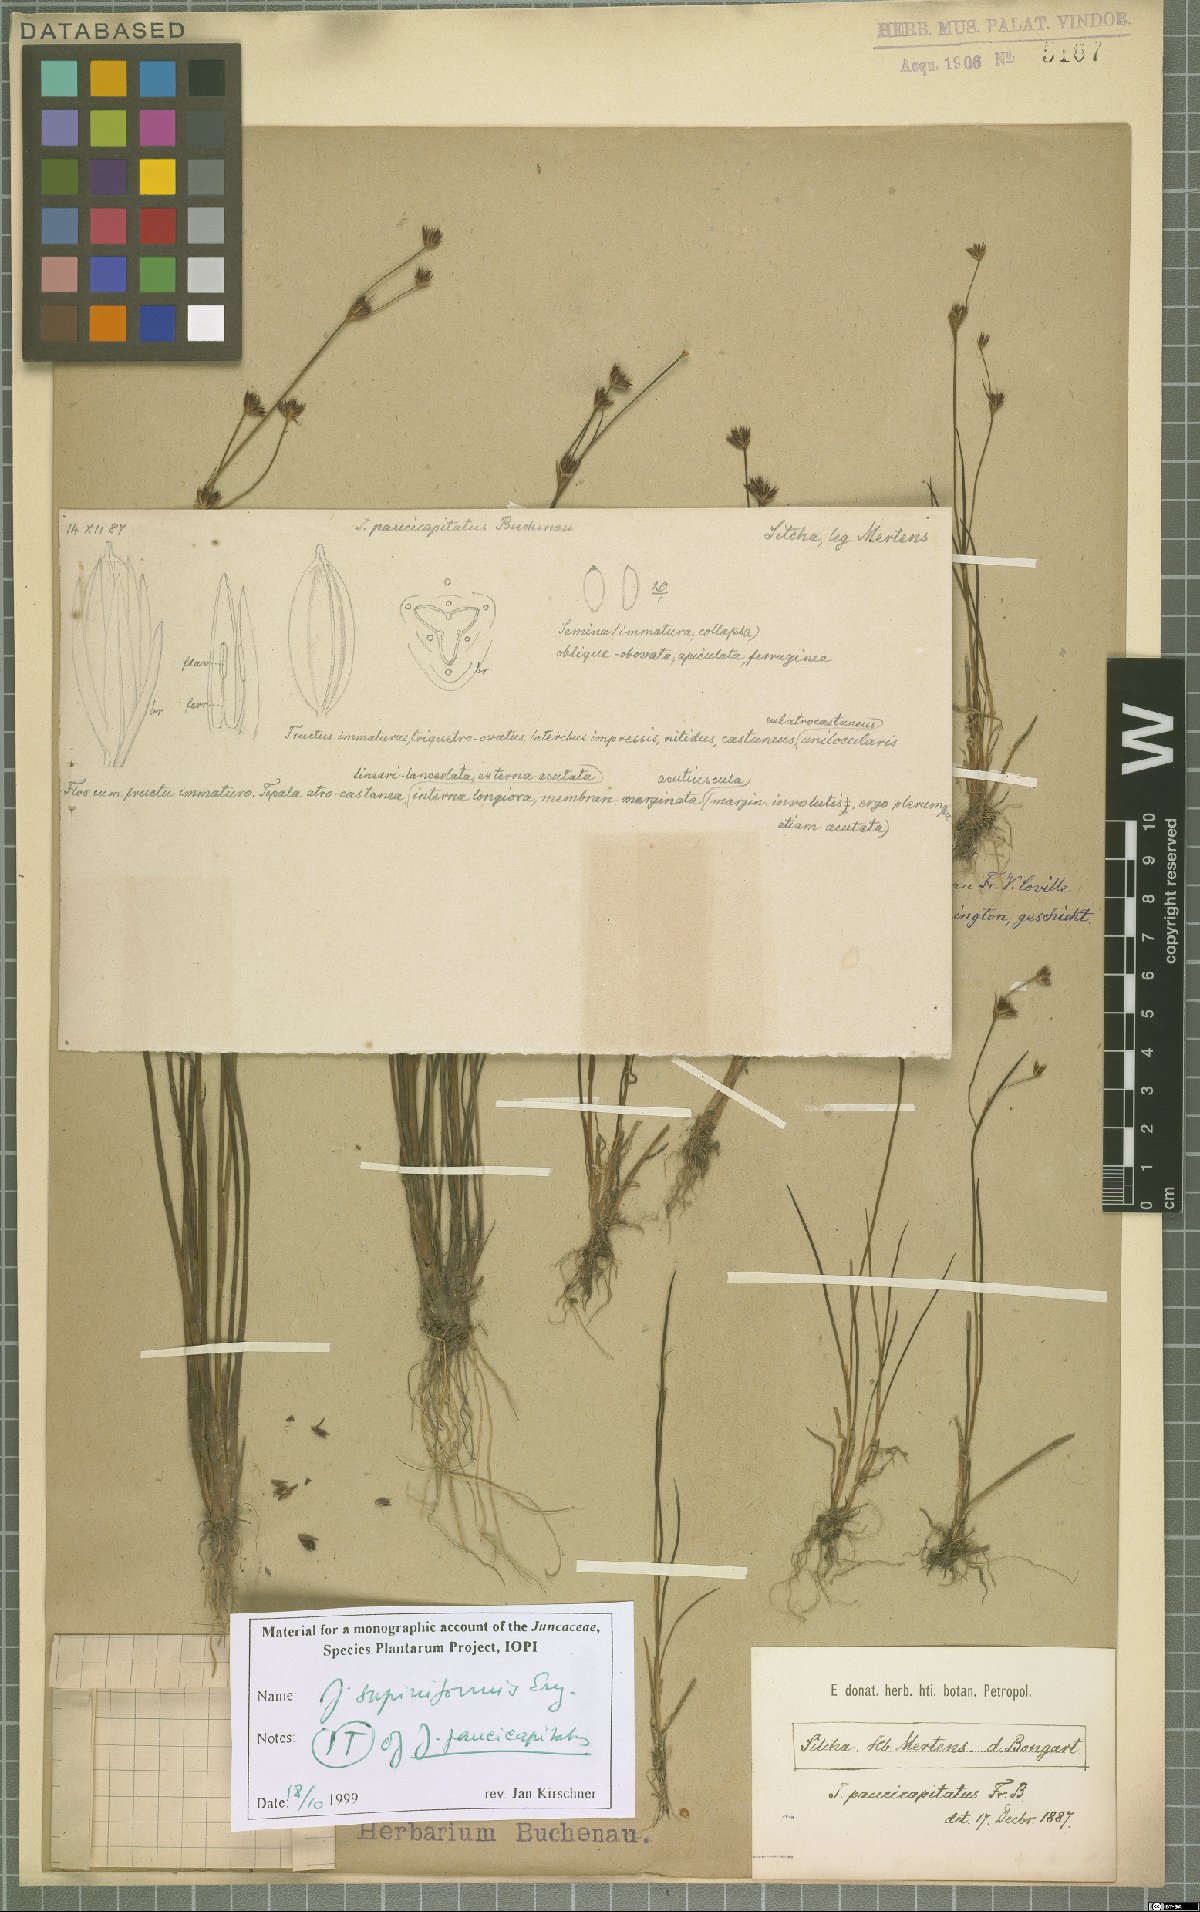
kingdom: Plantae
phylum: Tracheophyta
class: Liliopsida
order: Poales
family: Juncaceae
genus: Juncus
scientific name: Juncus supiniformis
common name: Hairy-leaved rush
